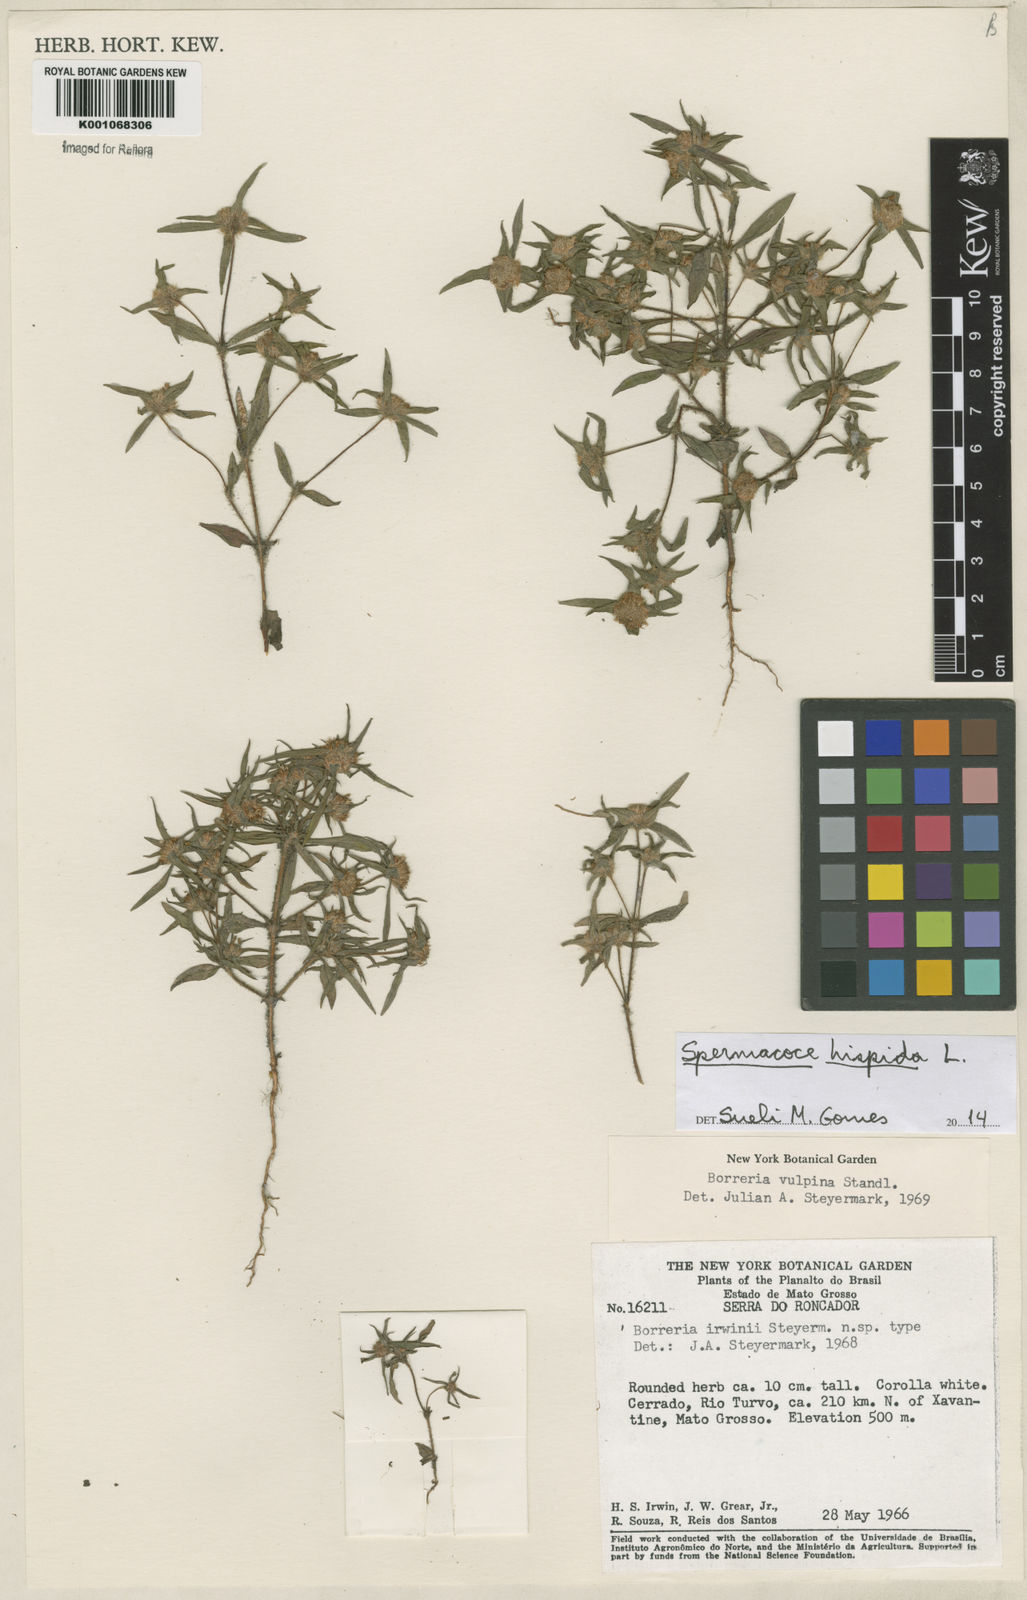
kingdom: Plantae
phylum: Tracheophyta
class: Magnoliopsida
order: Gentianales
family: Rubiaceae
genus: Spermacoce
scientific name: Spermacoce hispida
